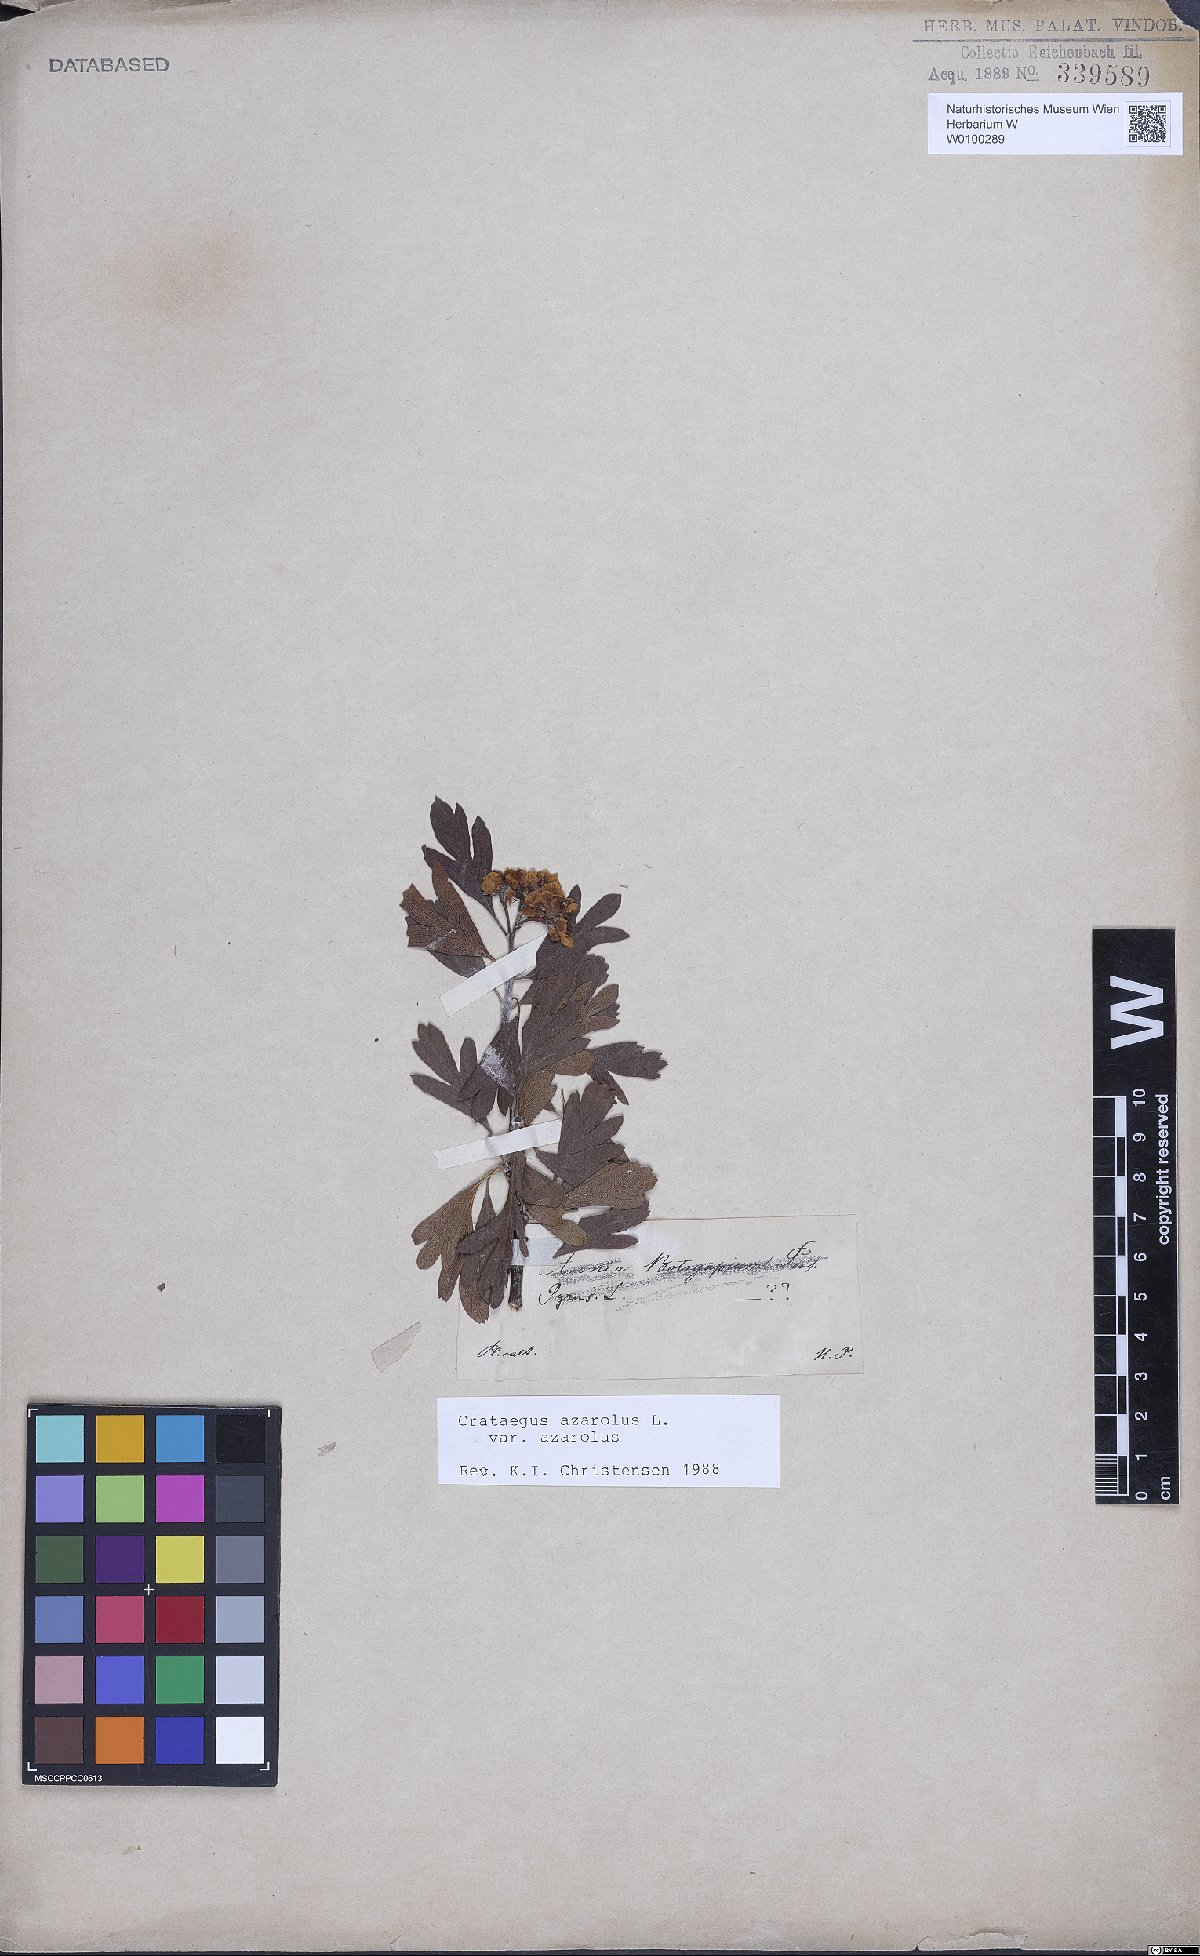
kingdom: Plantae
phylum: Tracheophyta
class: Magnoliopsida
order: Rosales
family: Rosaceae
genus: Crataegus
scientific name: Crataegus azarolus
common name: Azarole
